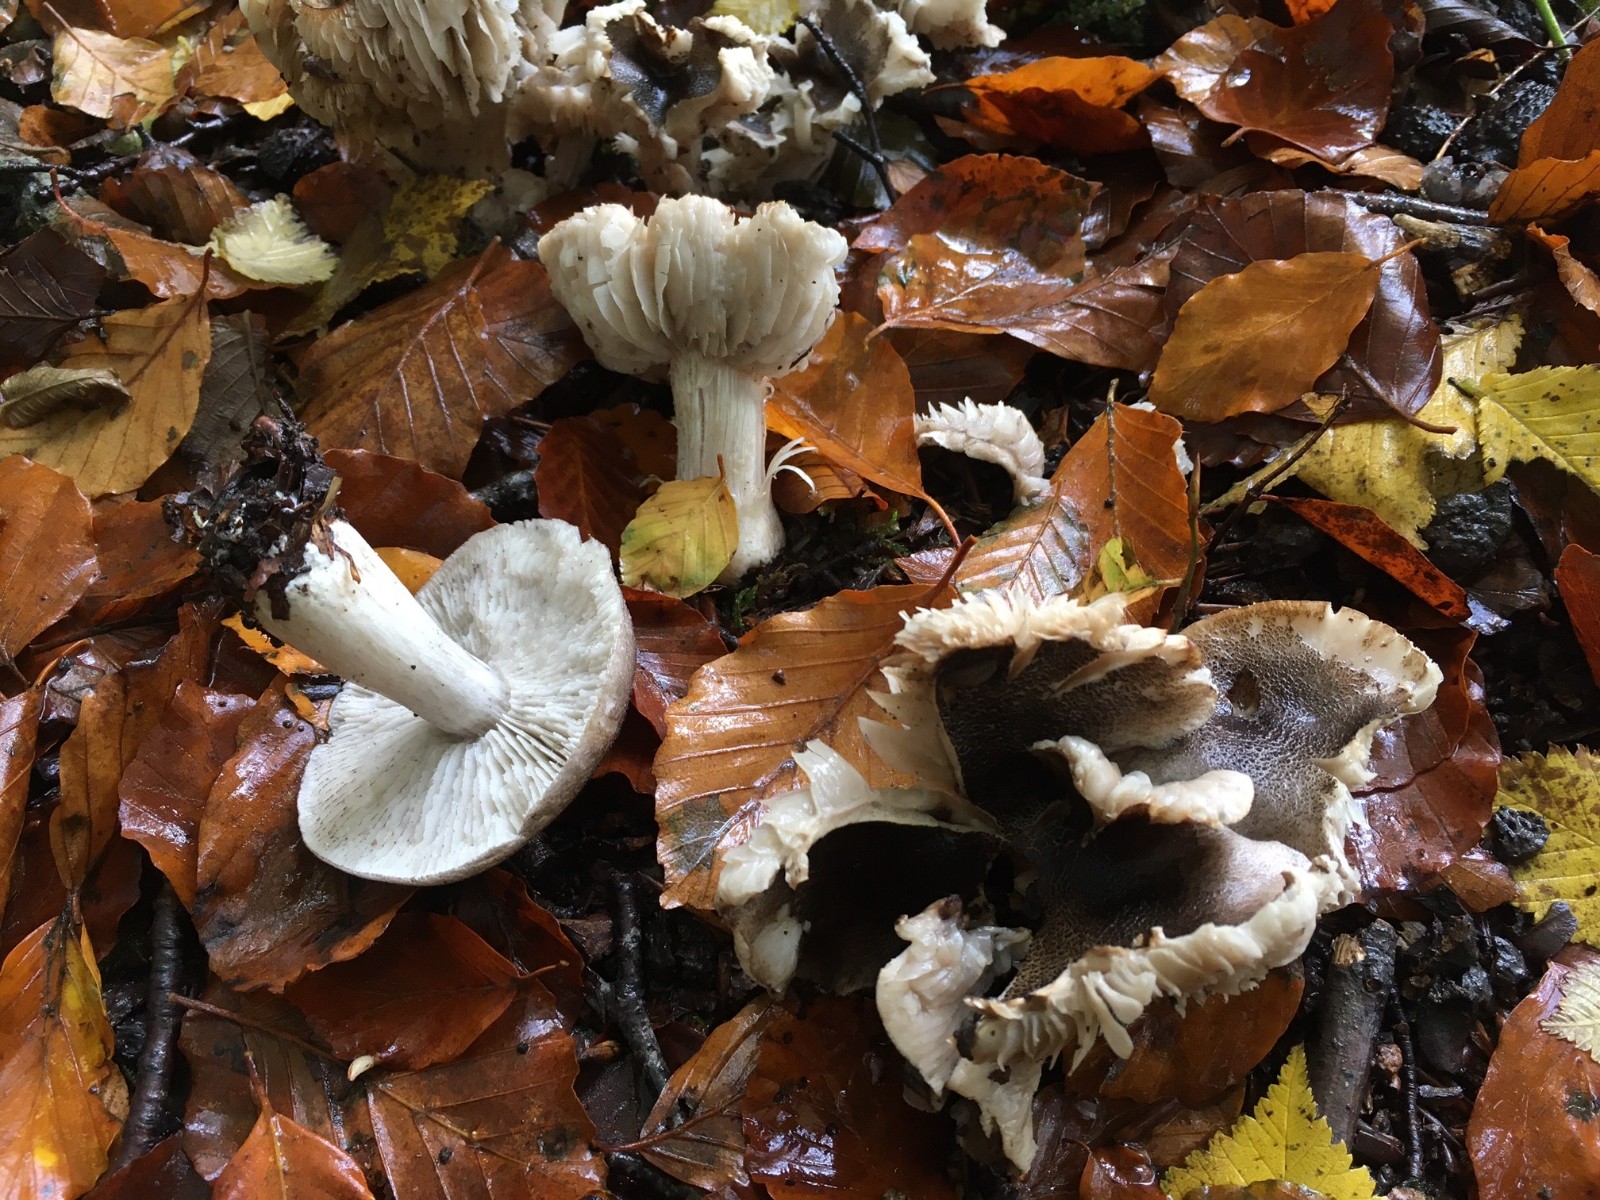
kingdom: Fungi
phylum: Basidiomycota
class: Agaricomycetes
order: Agaricales
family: Tricholomataceae
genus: Tricholoma
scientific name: Tricholoma orirubens
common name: rødbladet ridderhat
